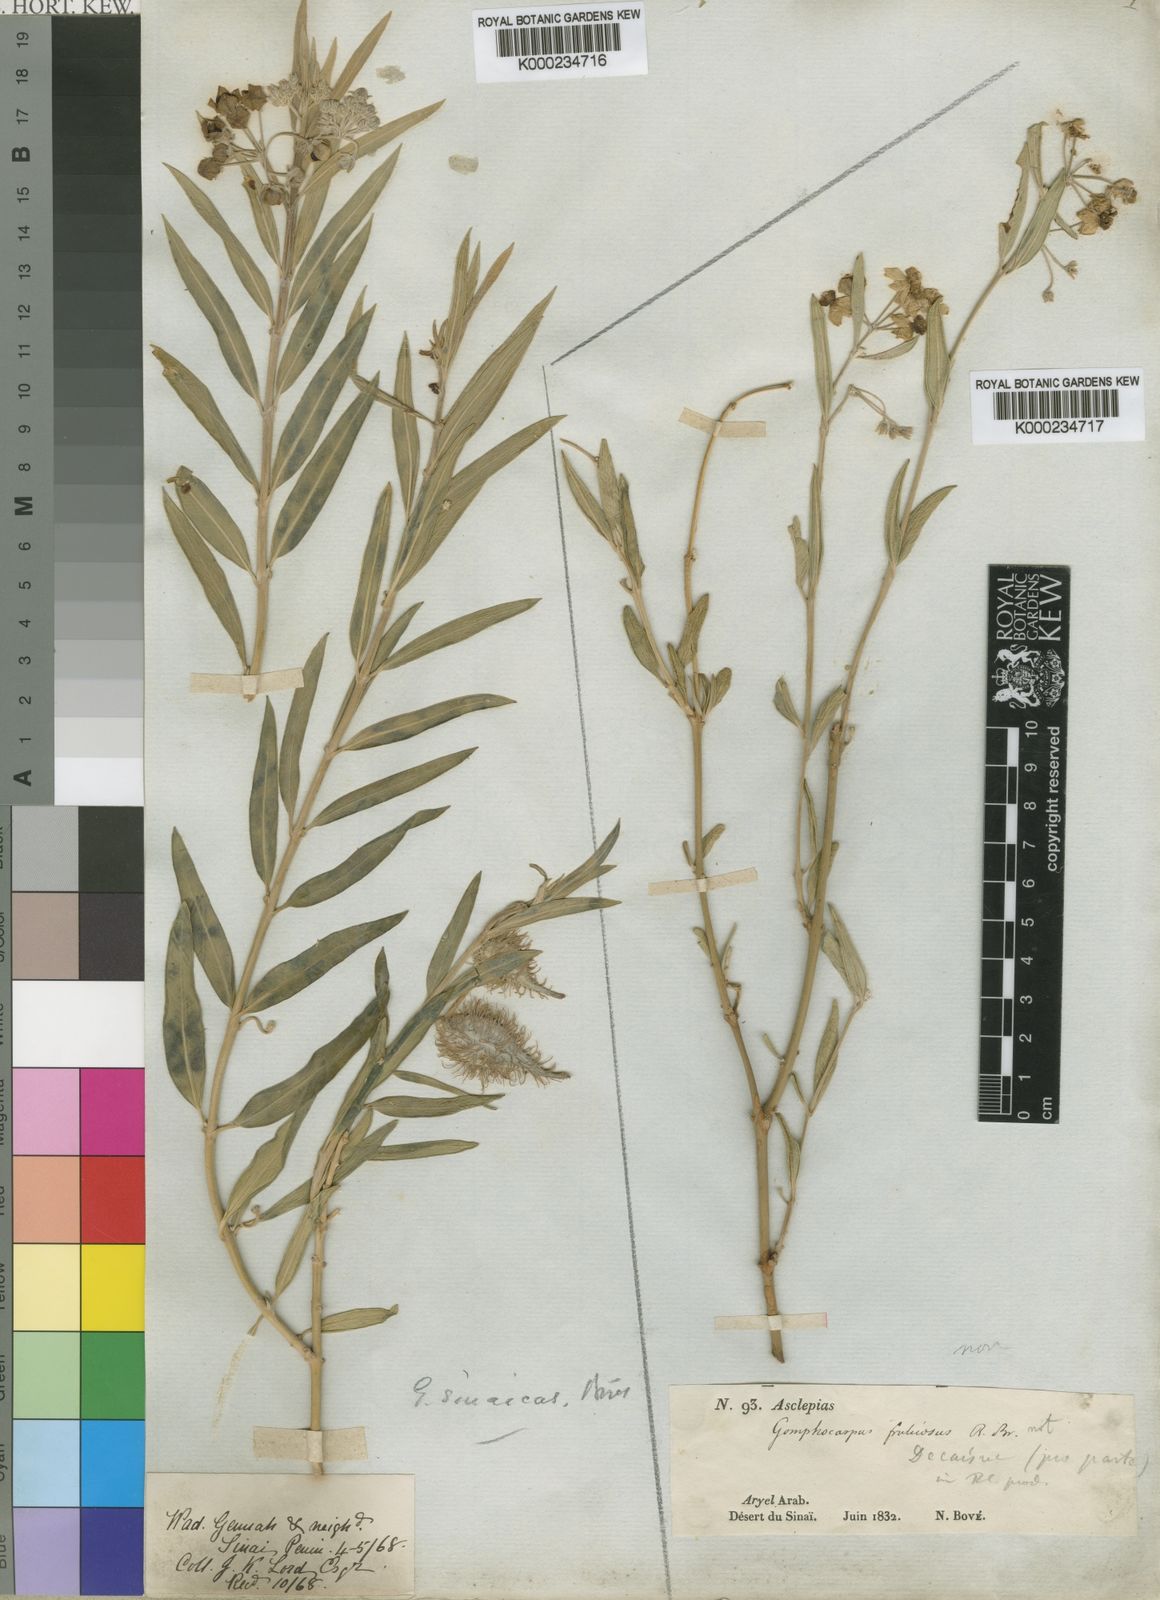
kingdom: Plantae
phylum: Tracheophyta
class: Magnoliopsida
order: Gentianales
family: Apocynaceae
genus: Gomphocarpus
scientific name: Gomphocarpus sinaicus
